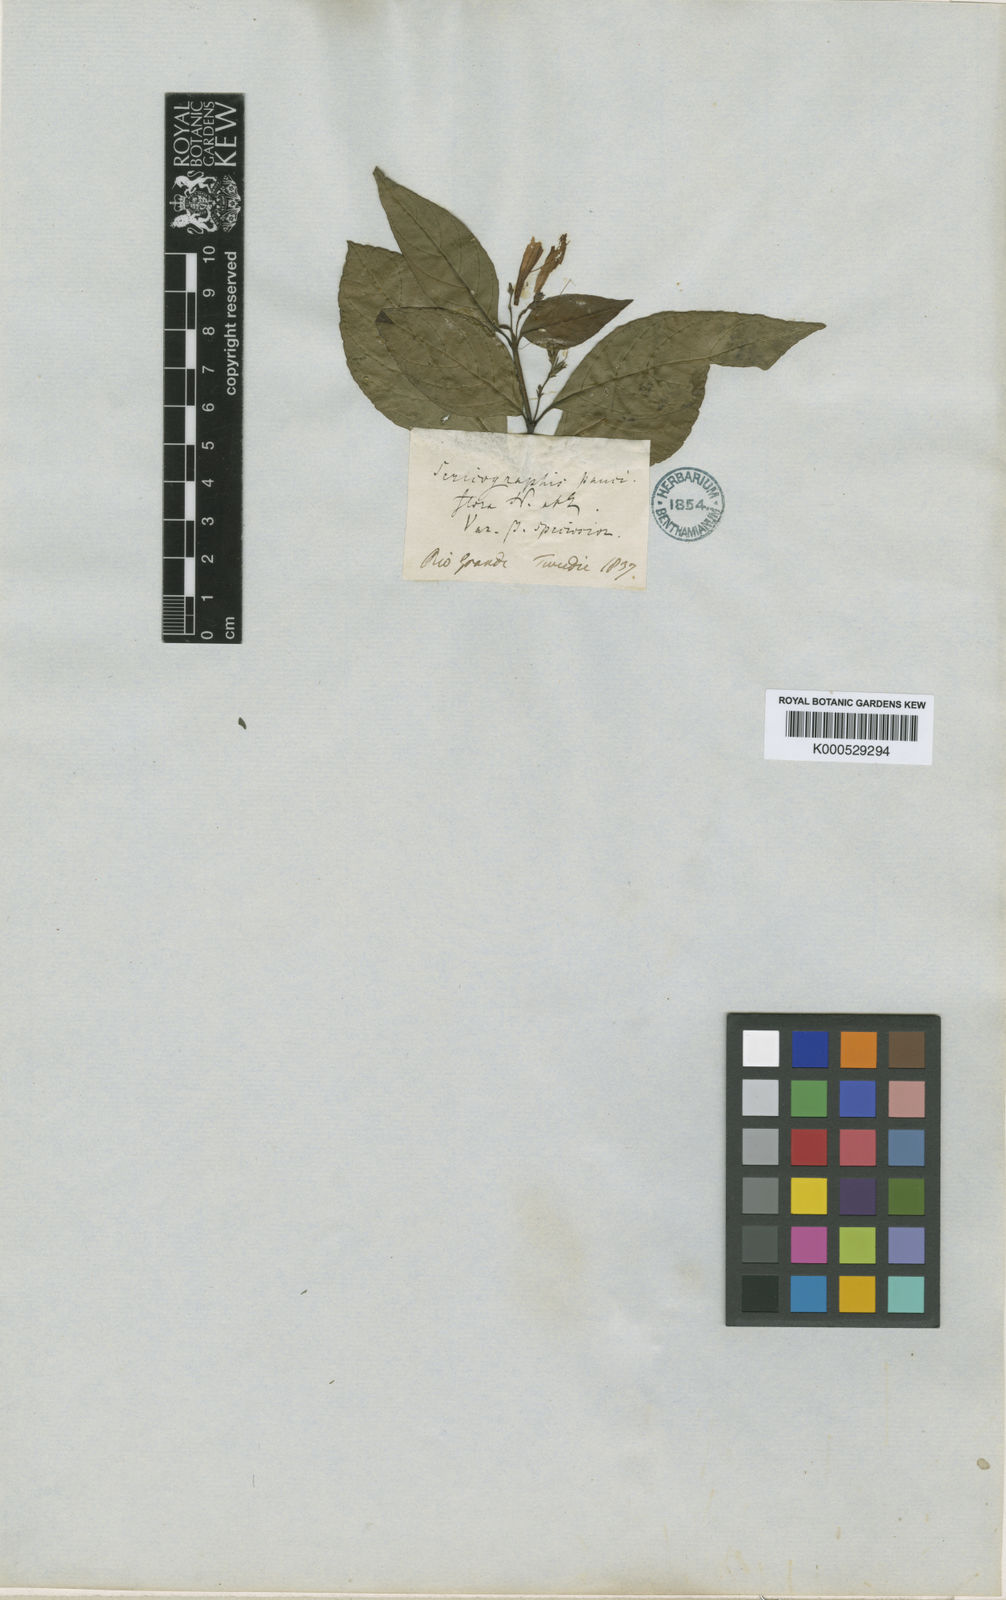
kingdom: Plantae
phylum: Tracheophyta
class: Magnoliopsida
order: Lamiales
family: Acanthaceae
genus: Justicia
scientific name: Justicia floribunda
